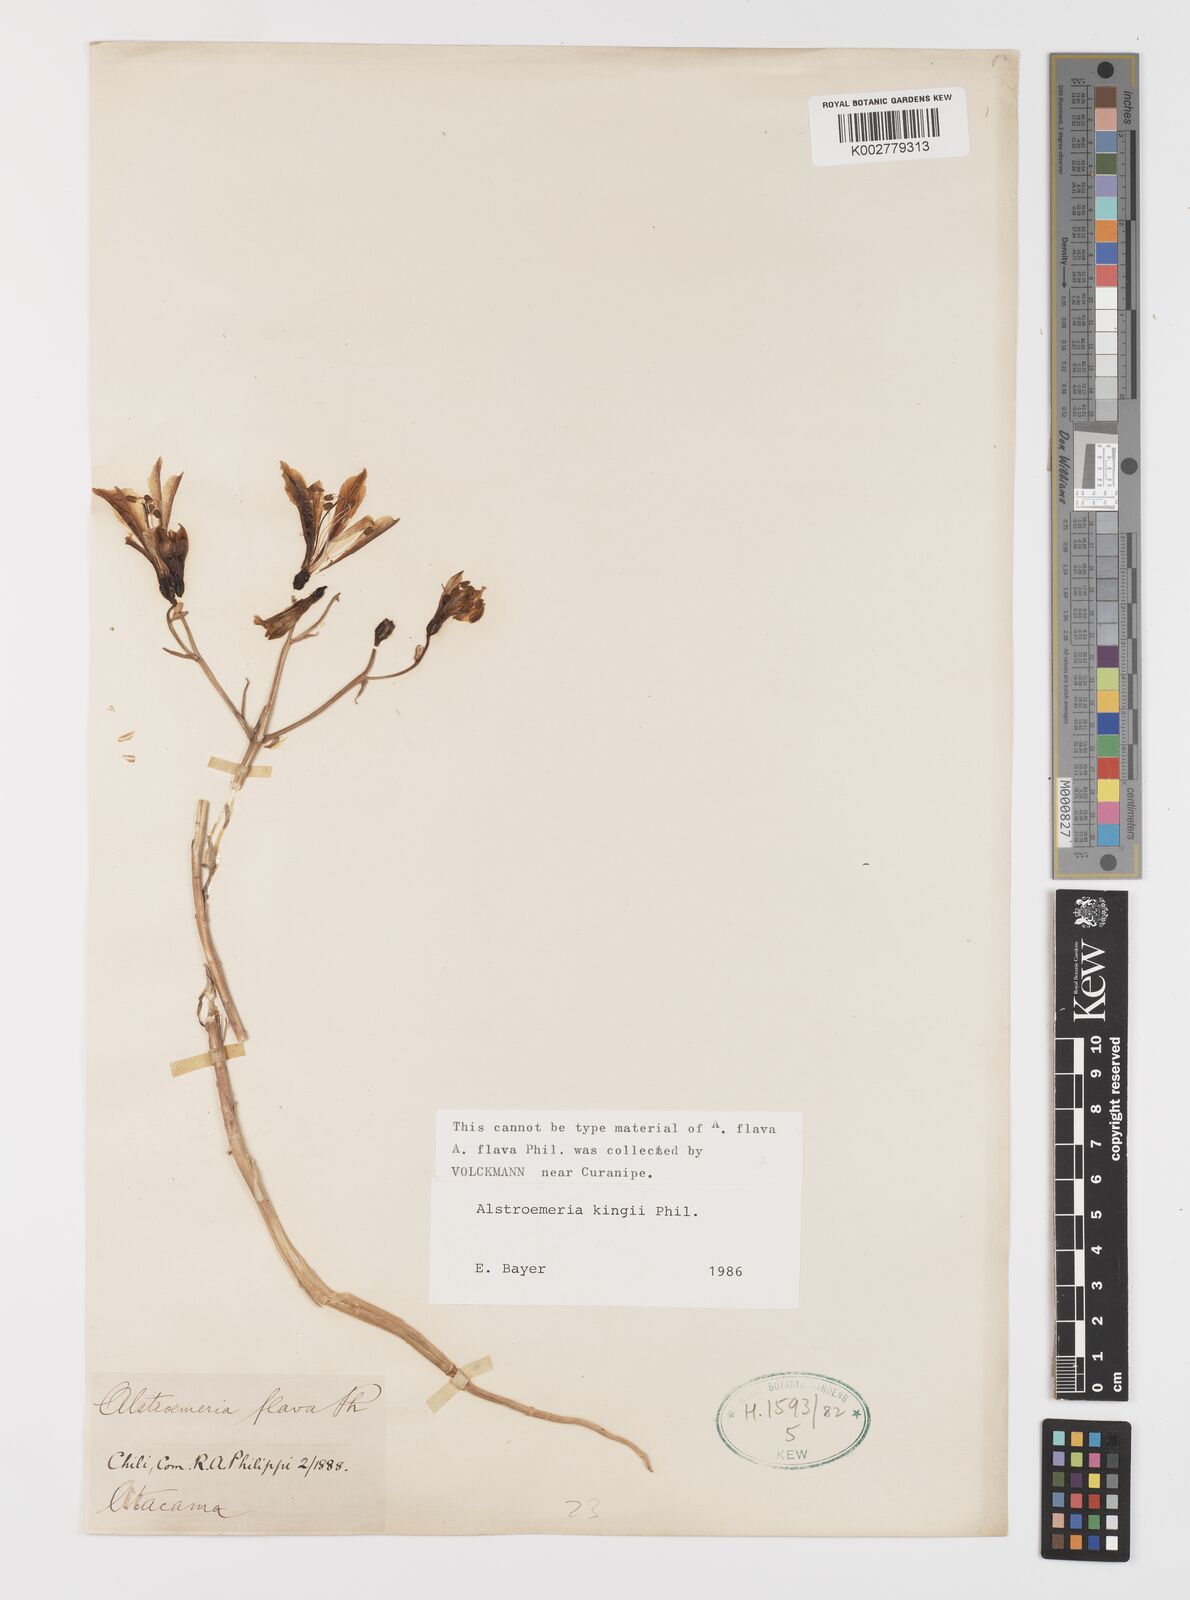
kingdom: Plantae
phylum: Tracheophyta
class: Liliopsida
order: Liliales
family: Alstroemeriaceae
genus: Alstroemeria
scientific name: Alstroemeria kingii
